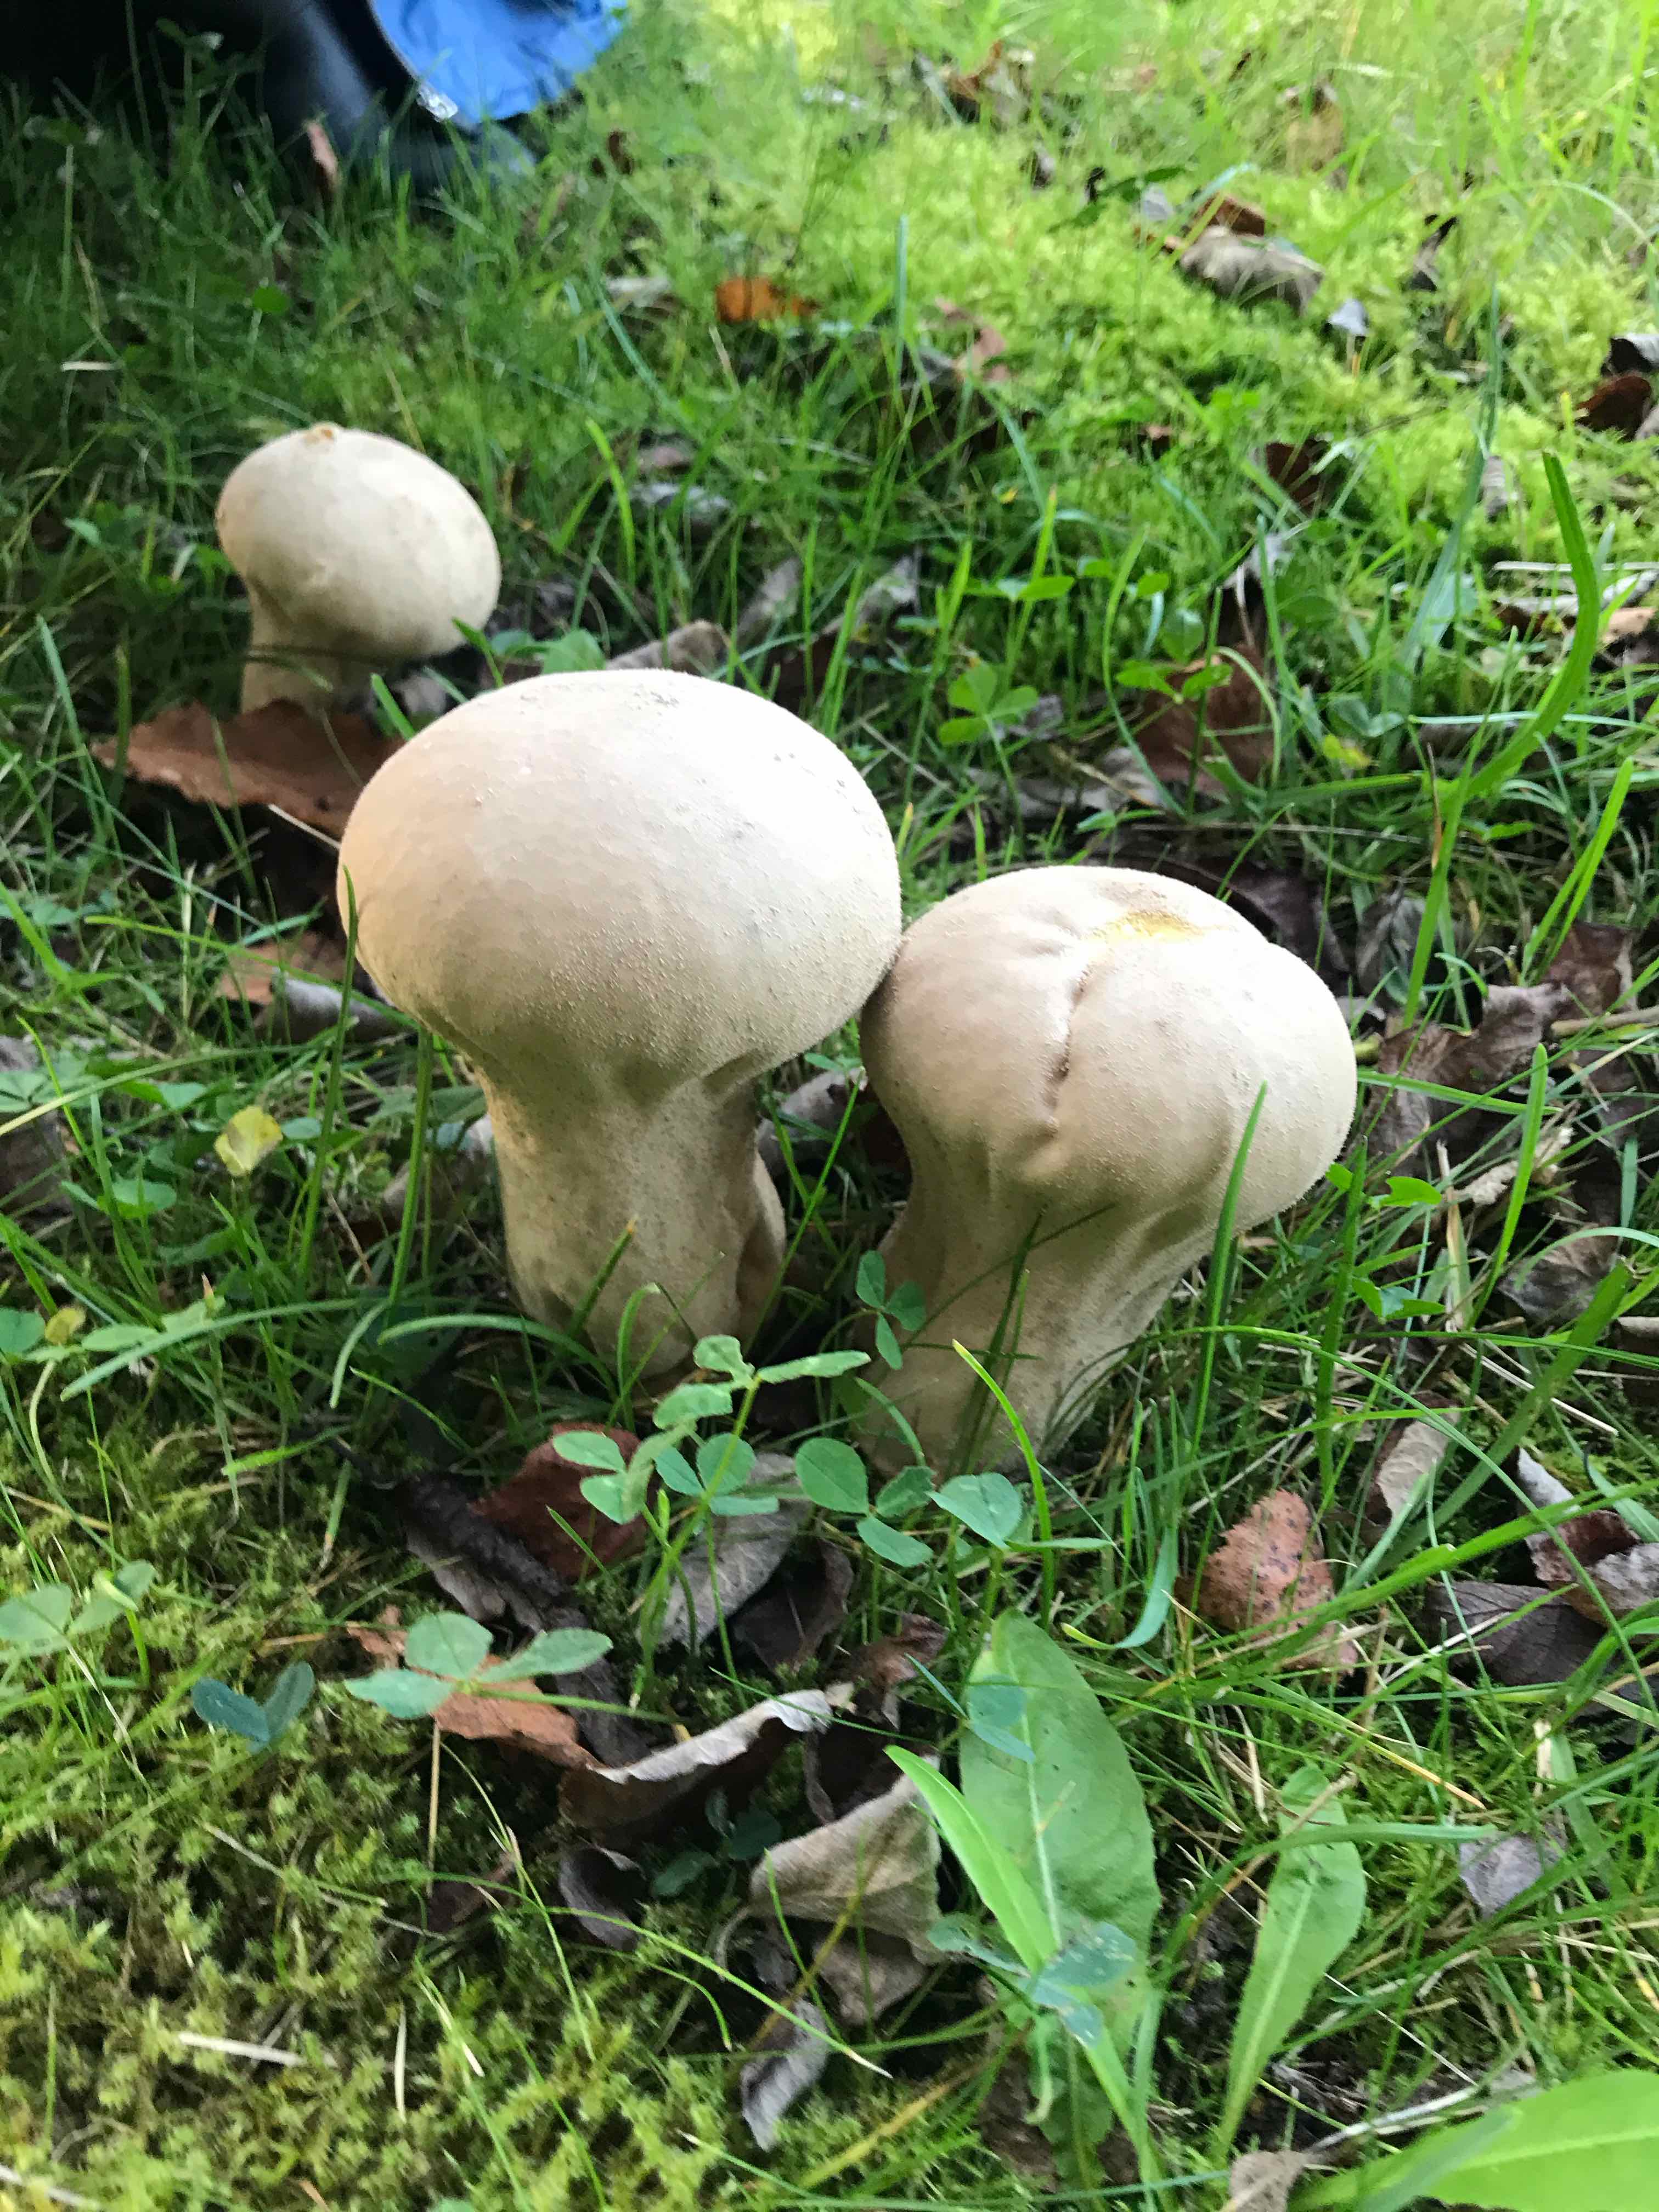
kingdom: Fungi
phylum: Basidiomycota
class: Agaricomycetes
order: Agaricales
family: Lycoperdaceae
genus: Lycoperdon
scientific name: Lycoperdon excipuliforme
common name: højstokket støvbold
